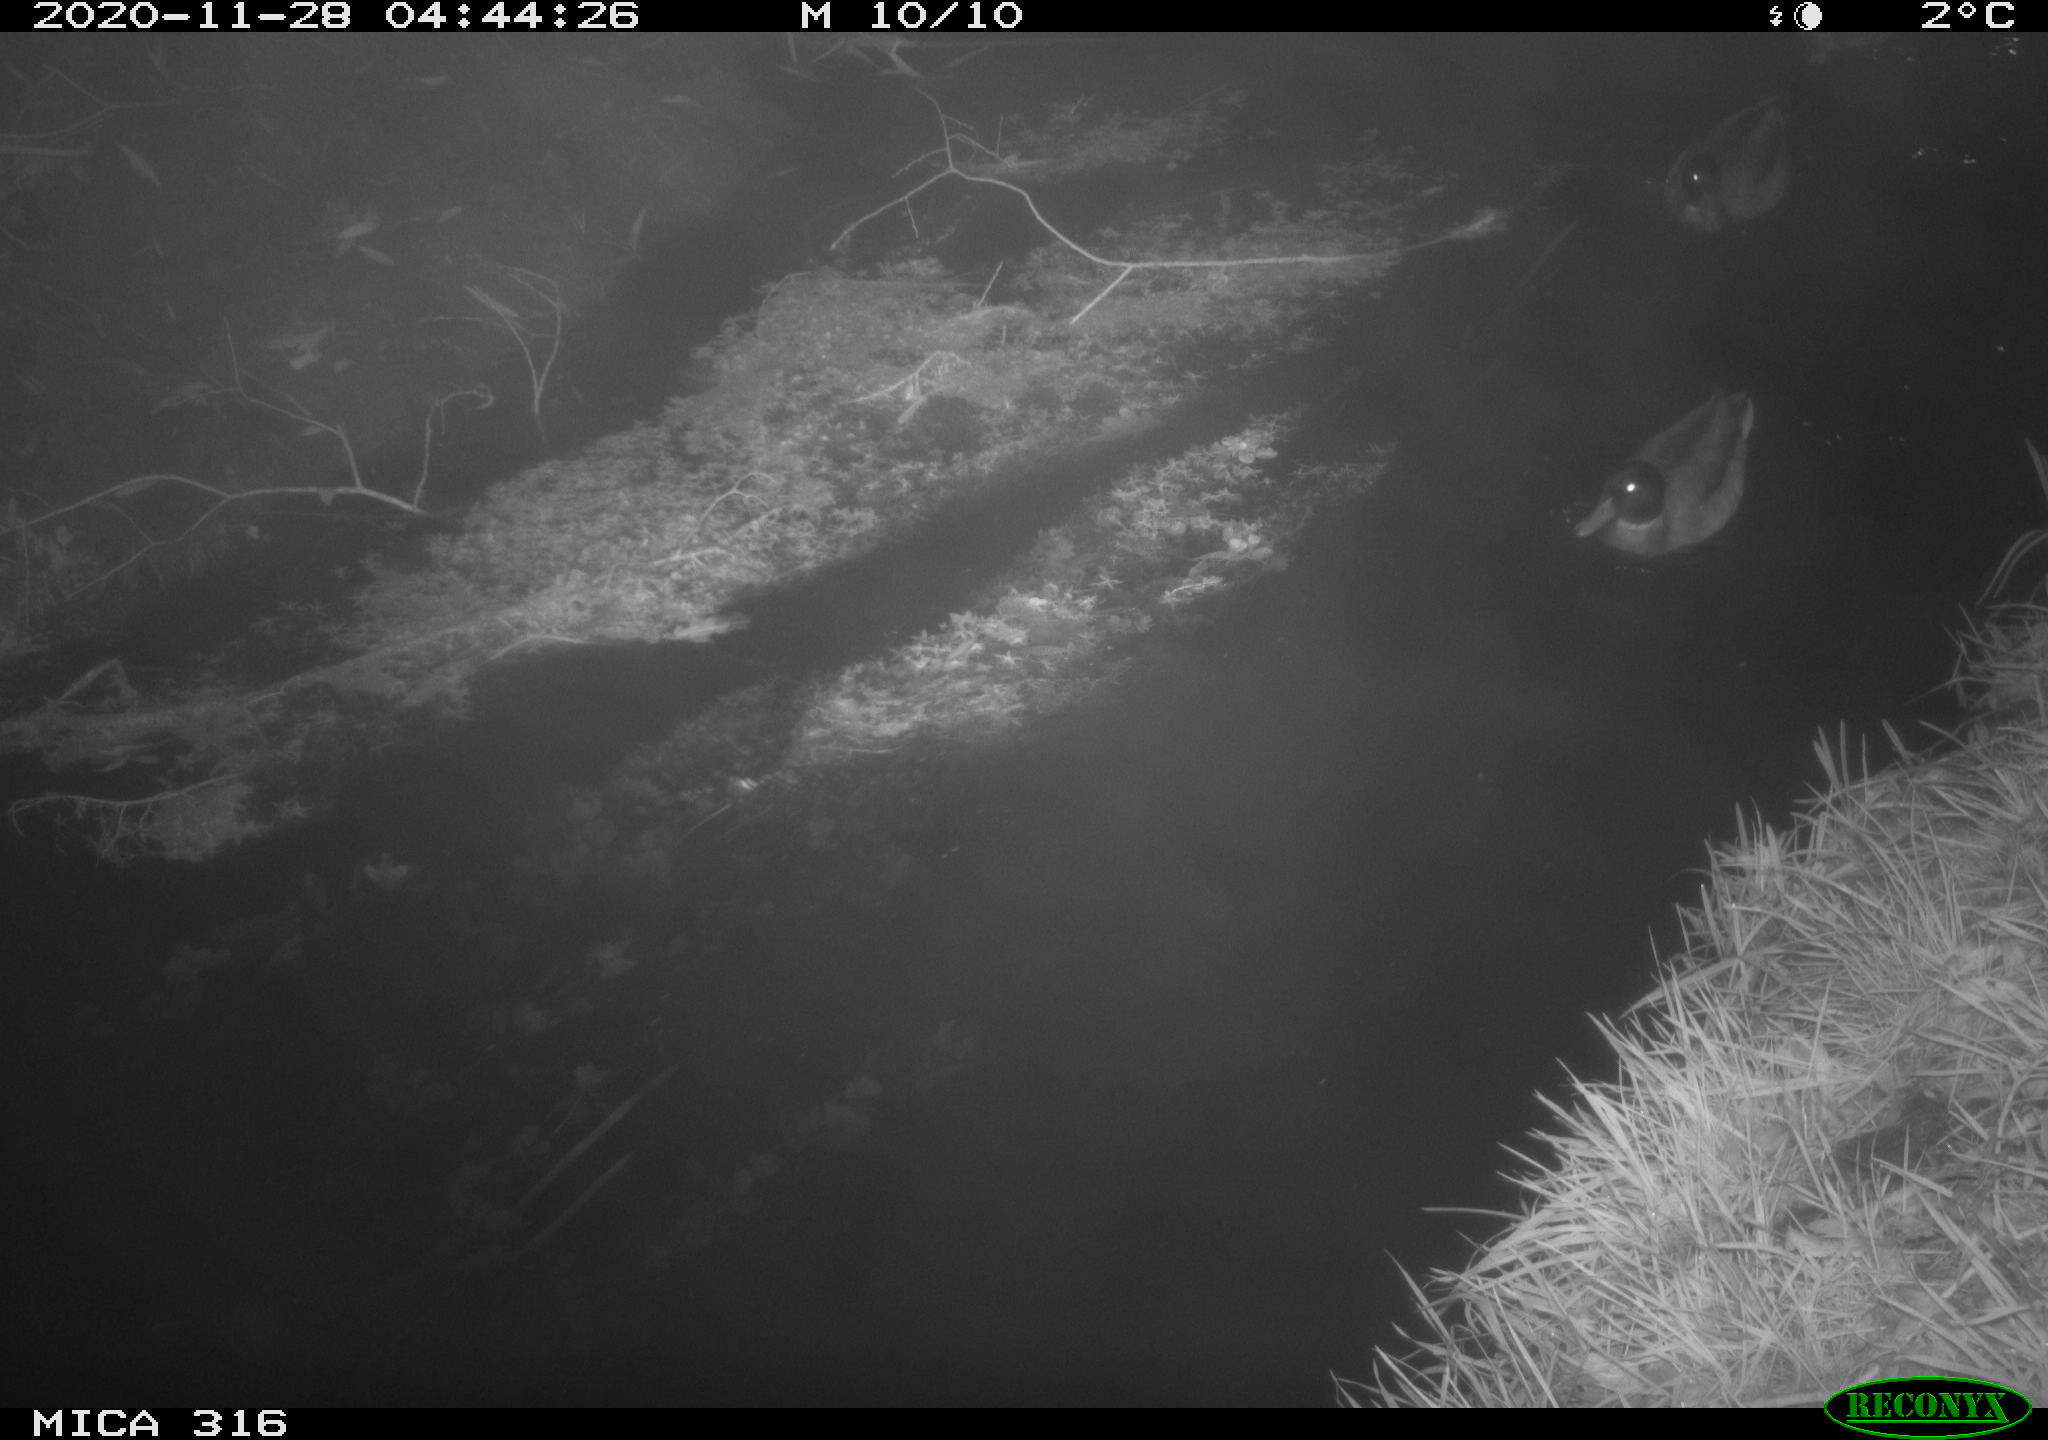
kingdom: Animalia
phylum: Chordata
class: Aves
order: Gruiformes
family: Rallidae
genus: Gallinula
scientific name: Gallinula chloropus
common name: Common moorhen
